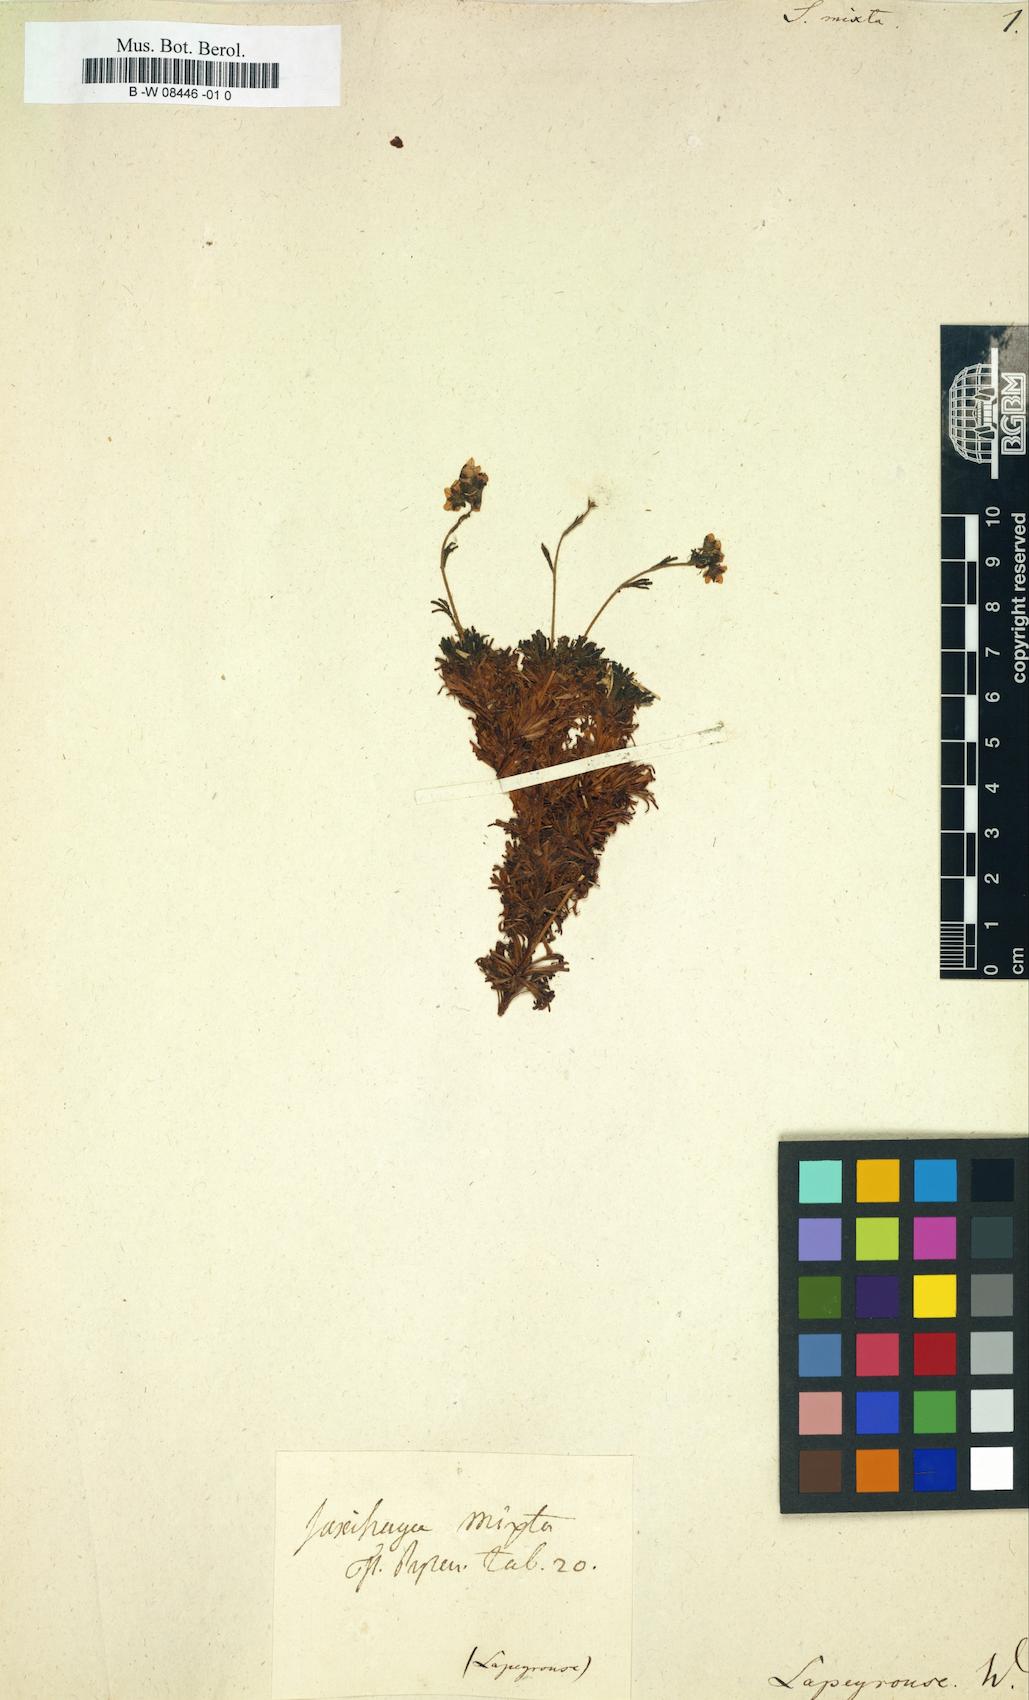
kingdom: Plantae
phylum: Tracheophyta
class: Magnoliopsida
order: Saxifragales
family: Saxifragaceae
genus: Saxifraga
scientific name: Saxifraga
